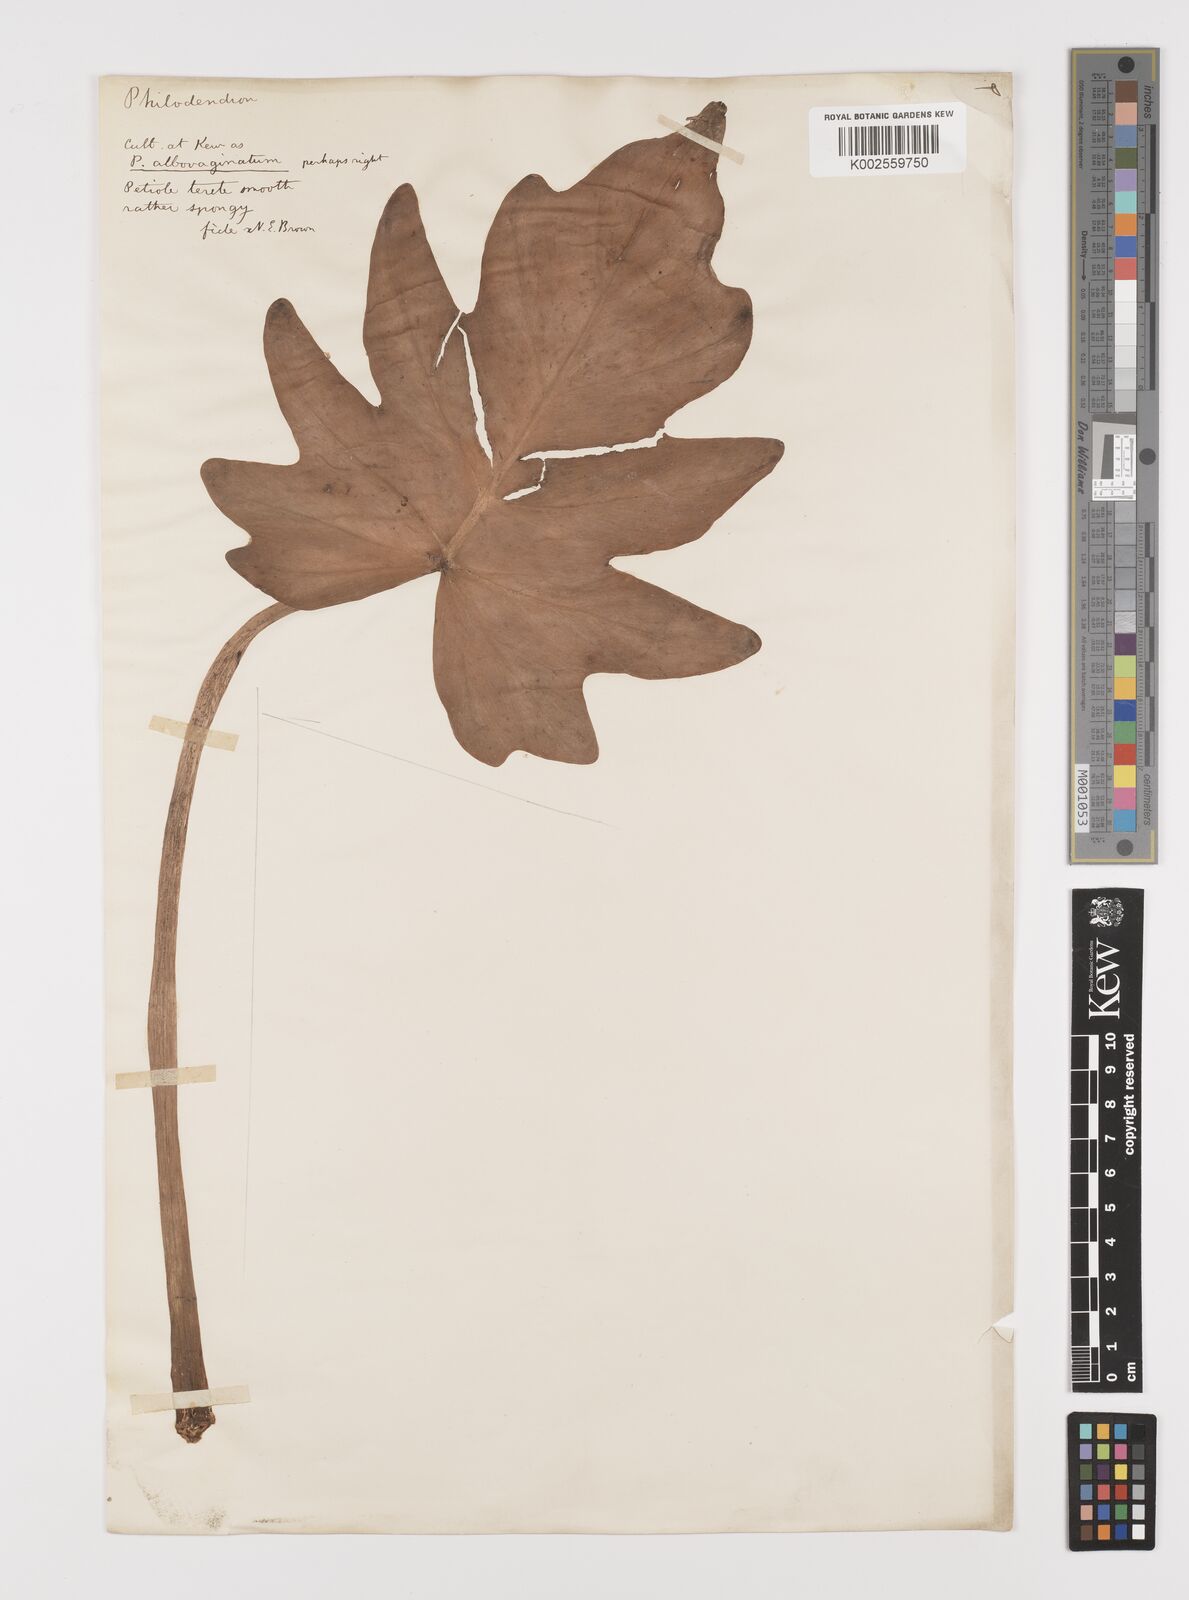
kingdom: Plantae
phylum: Tracheophyta
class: Liliopsida
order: Alismatales
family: Araceae
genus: Philodendron
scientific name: Philodendron lacerum
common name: Philodendron
